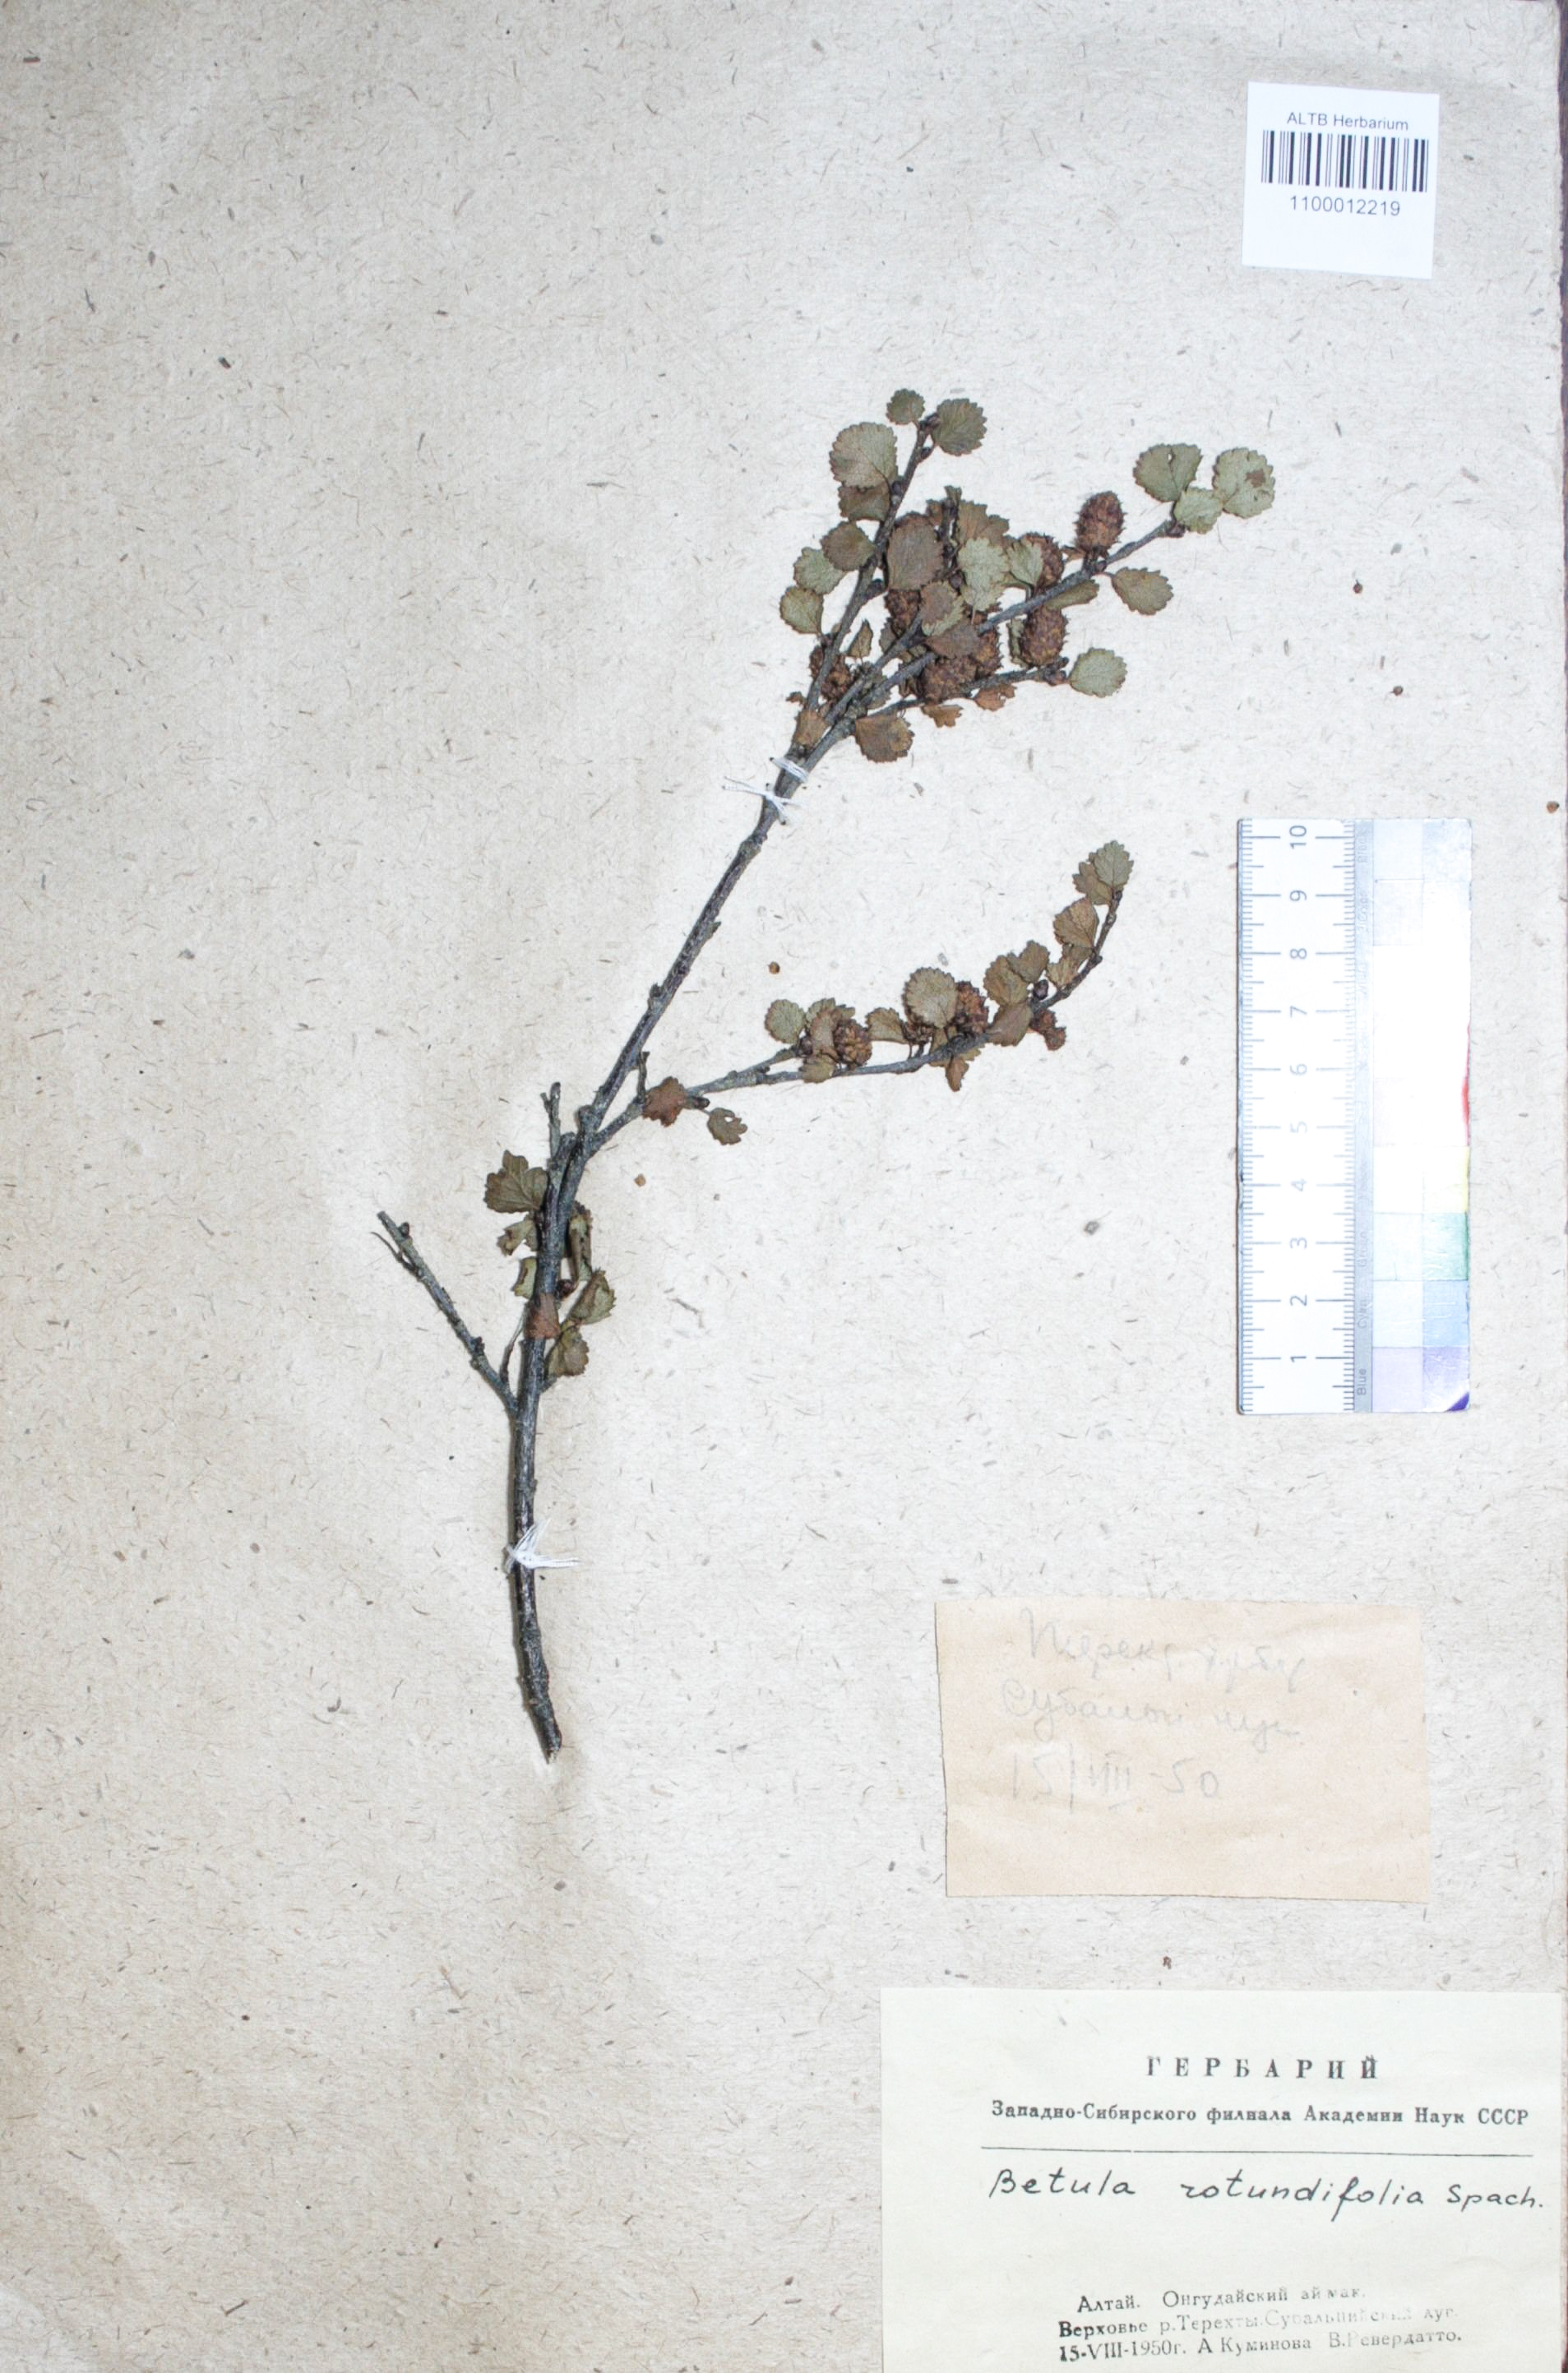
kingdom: Plantae
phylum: Tracheophyta
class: Magnoliopsida
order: Fagales
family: Betulaceae
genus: Betula
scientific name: Betula glandulosa
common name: Dwarf birch
